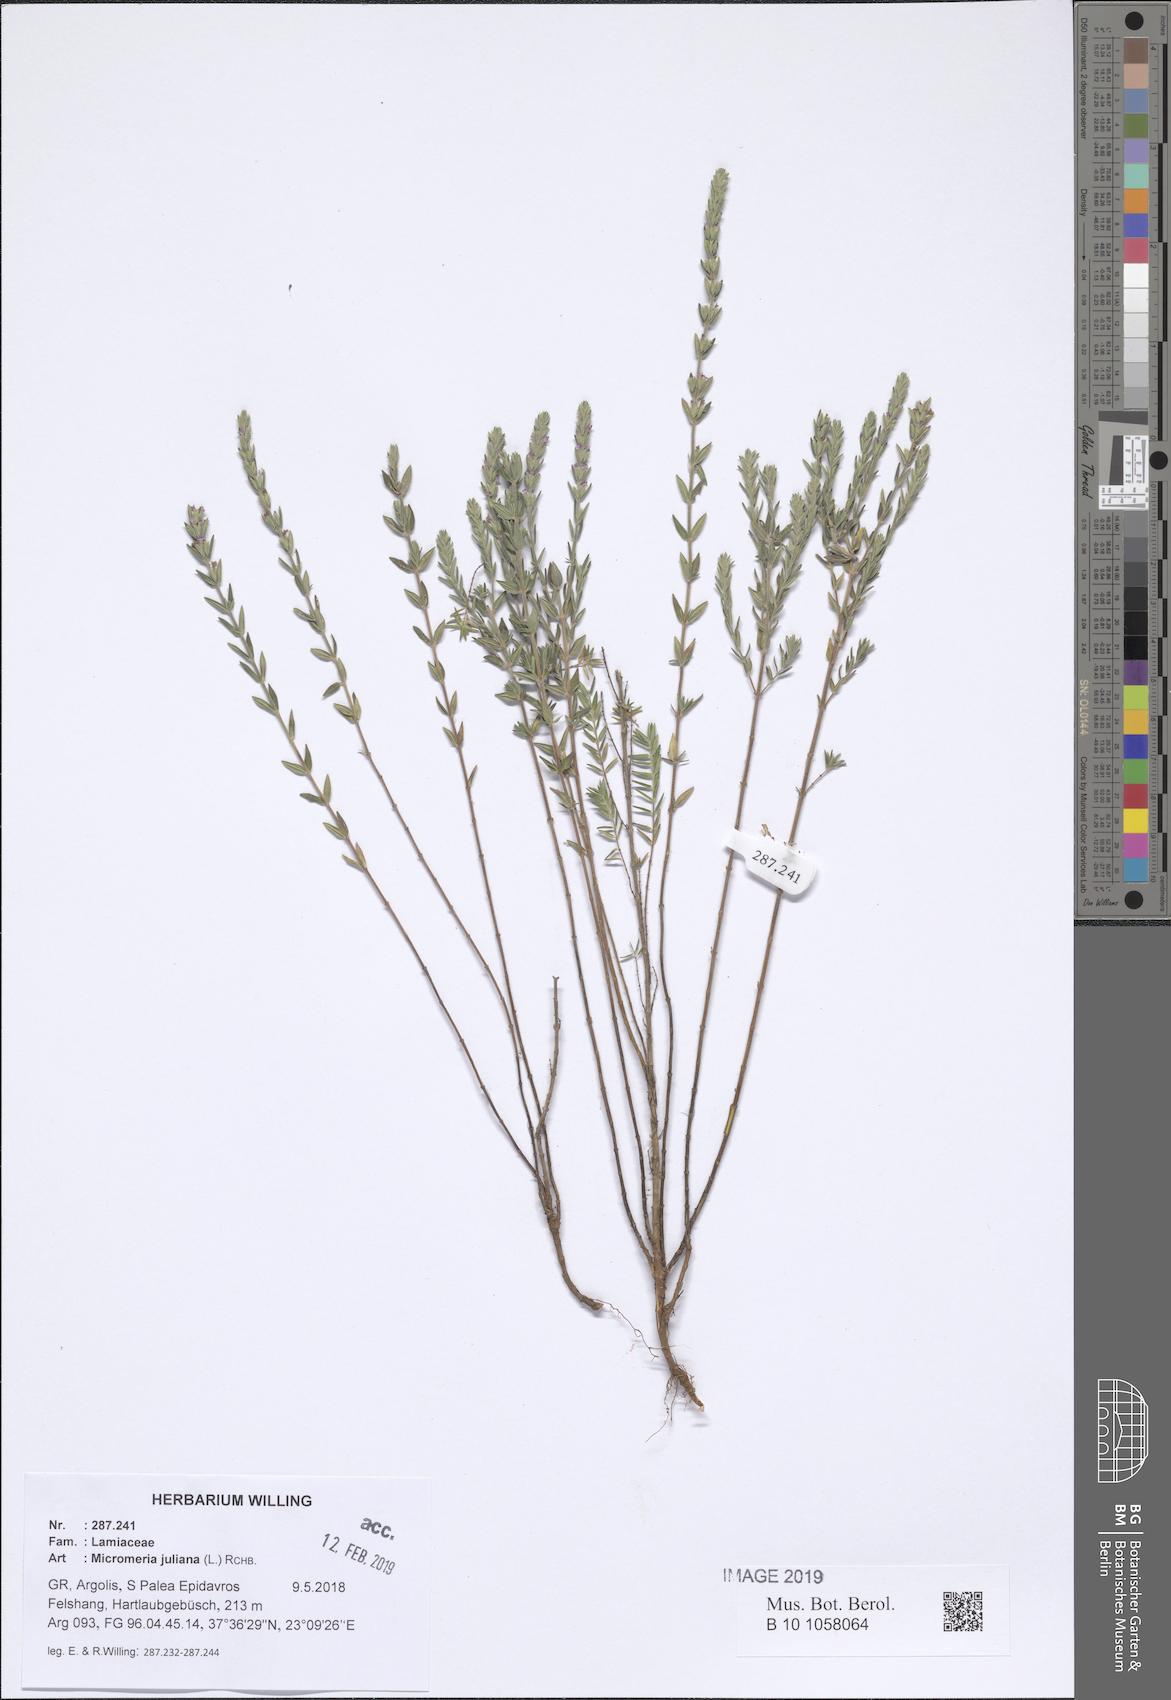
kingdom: Plantae
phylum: Tracheophyta
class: Magnoliopsida
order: Lamiales
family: Lamiaceae
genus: Micromeria
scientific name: Micromeria juliana
